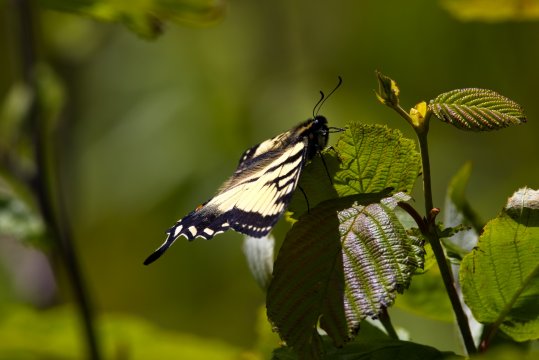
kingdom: Animalia
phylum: Arthropoda
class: Insecta
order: Lepidoptera
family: Papilionidae
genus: Pterourus
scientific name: Pterourus canadensis
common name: Canadian Tiger Swallowtail
